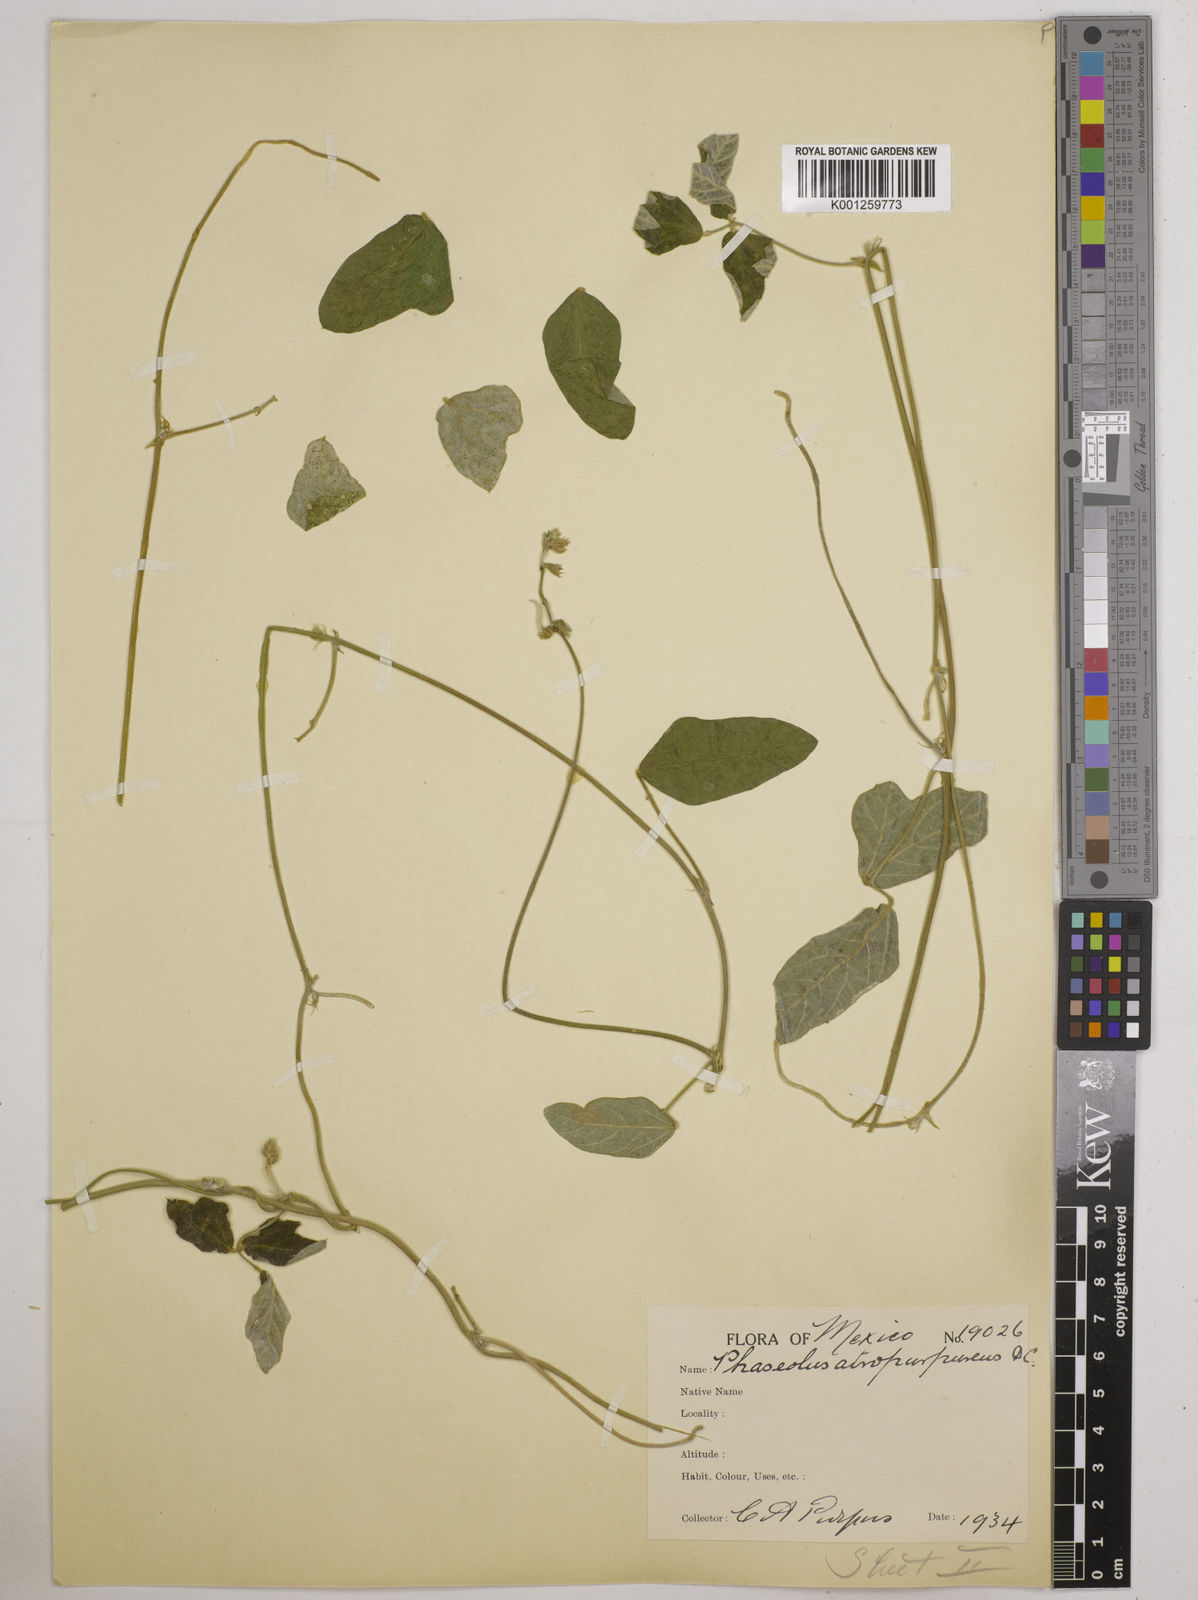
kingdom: Plantae
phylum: Tracheophyta
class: Magnoliopsida
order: Fabales
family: Fabaceae
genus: Macroptilium
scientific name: Macroptilium atropurpureum
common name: Purple bushbean
